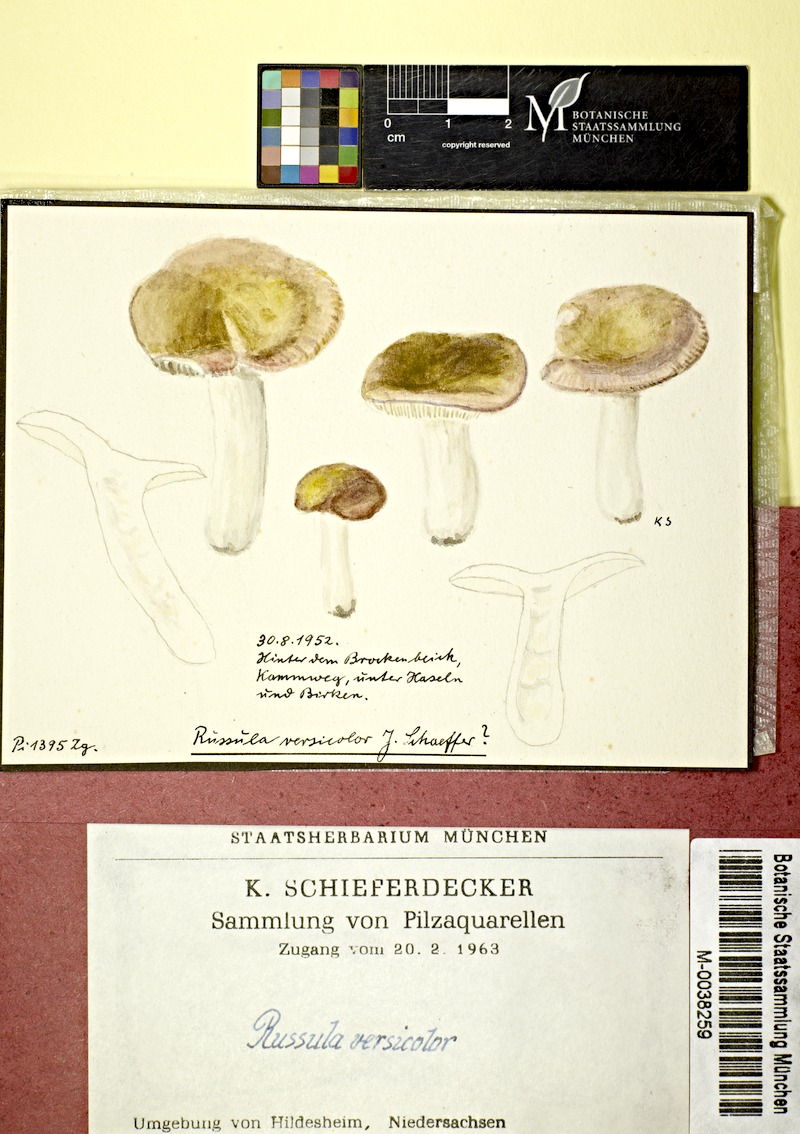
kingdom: Fungi
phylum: Basidiomycota
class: Agaricomycetes
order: Russulales
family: Russulaceae
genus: Russula
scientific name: Russula versicolor
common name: Variable brittlegill
